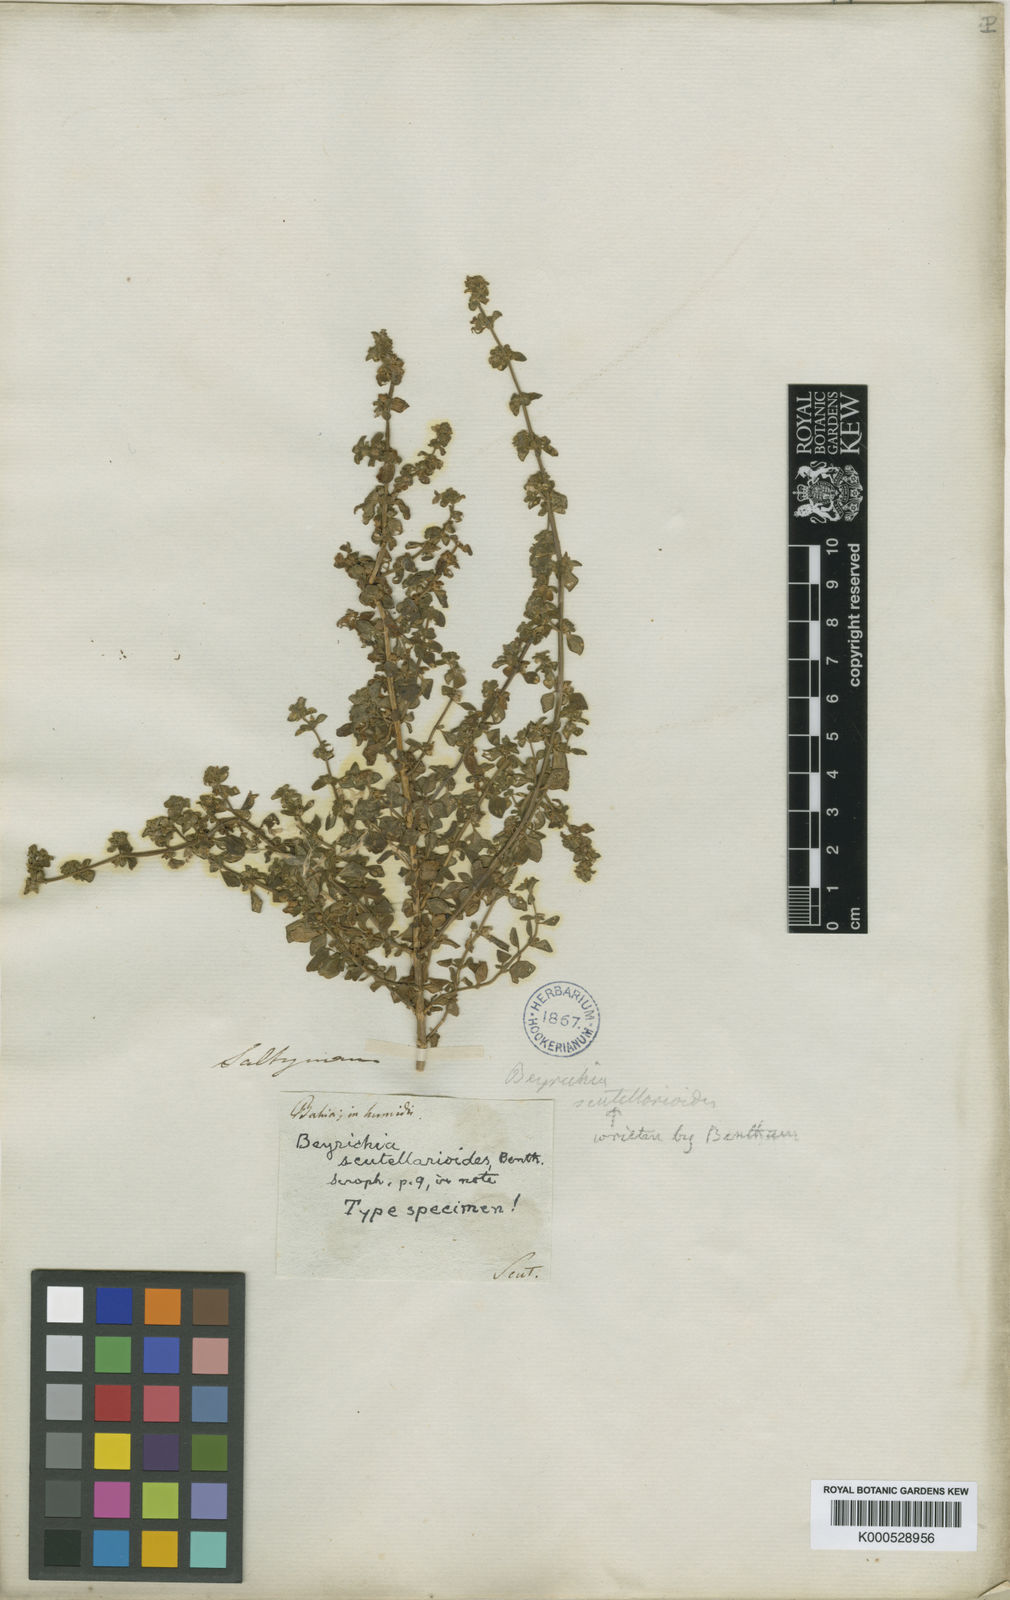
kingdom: Plantae
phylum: Tracheophyta
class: Magnoliopsida
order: Lamiales
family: Plantaginaceae
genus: Matourea
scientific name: Matourea
